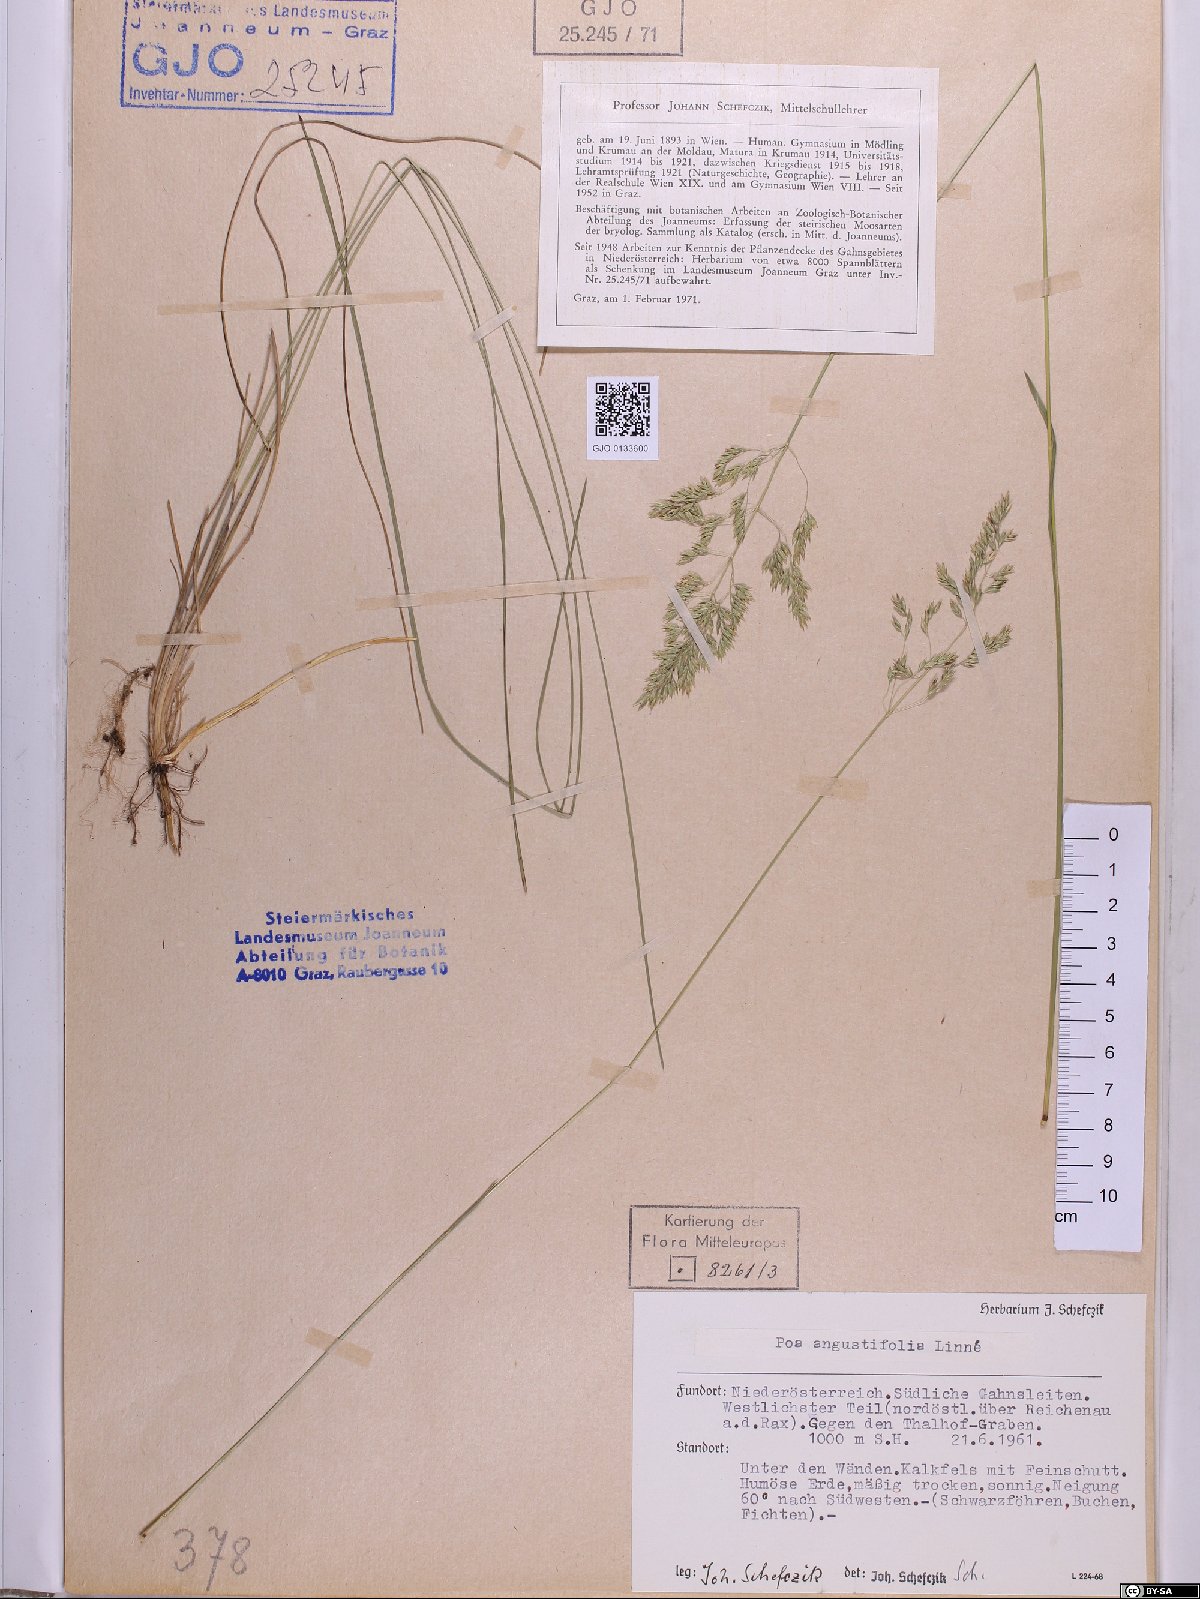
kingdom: Plantae
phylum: Tracheophyta
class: Liliopsida
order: Poales
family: Poaceae
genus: Poa
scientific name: Poa angustifolia
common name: Narrow-leaved meadow-grass
